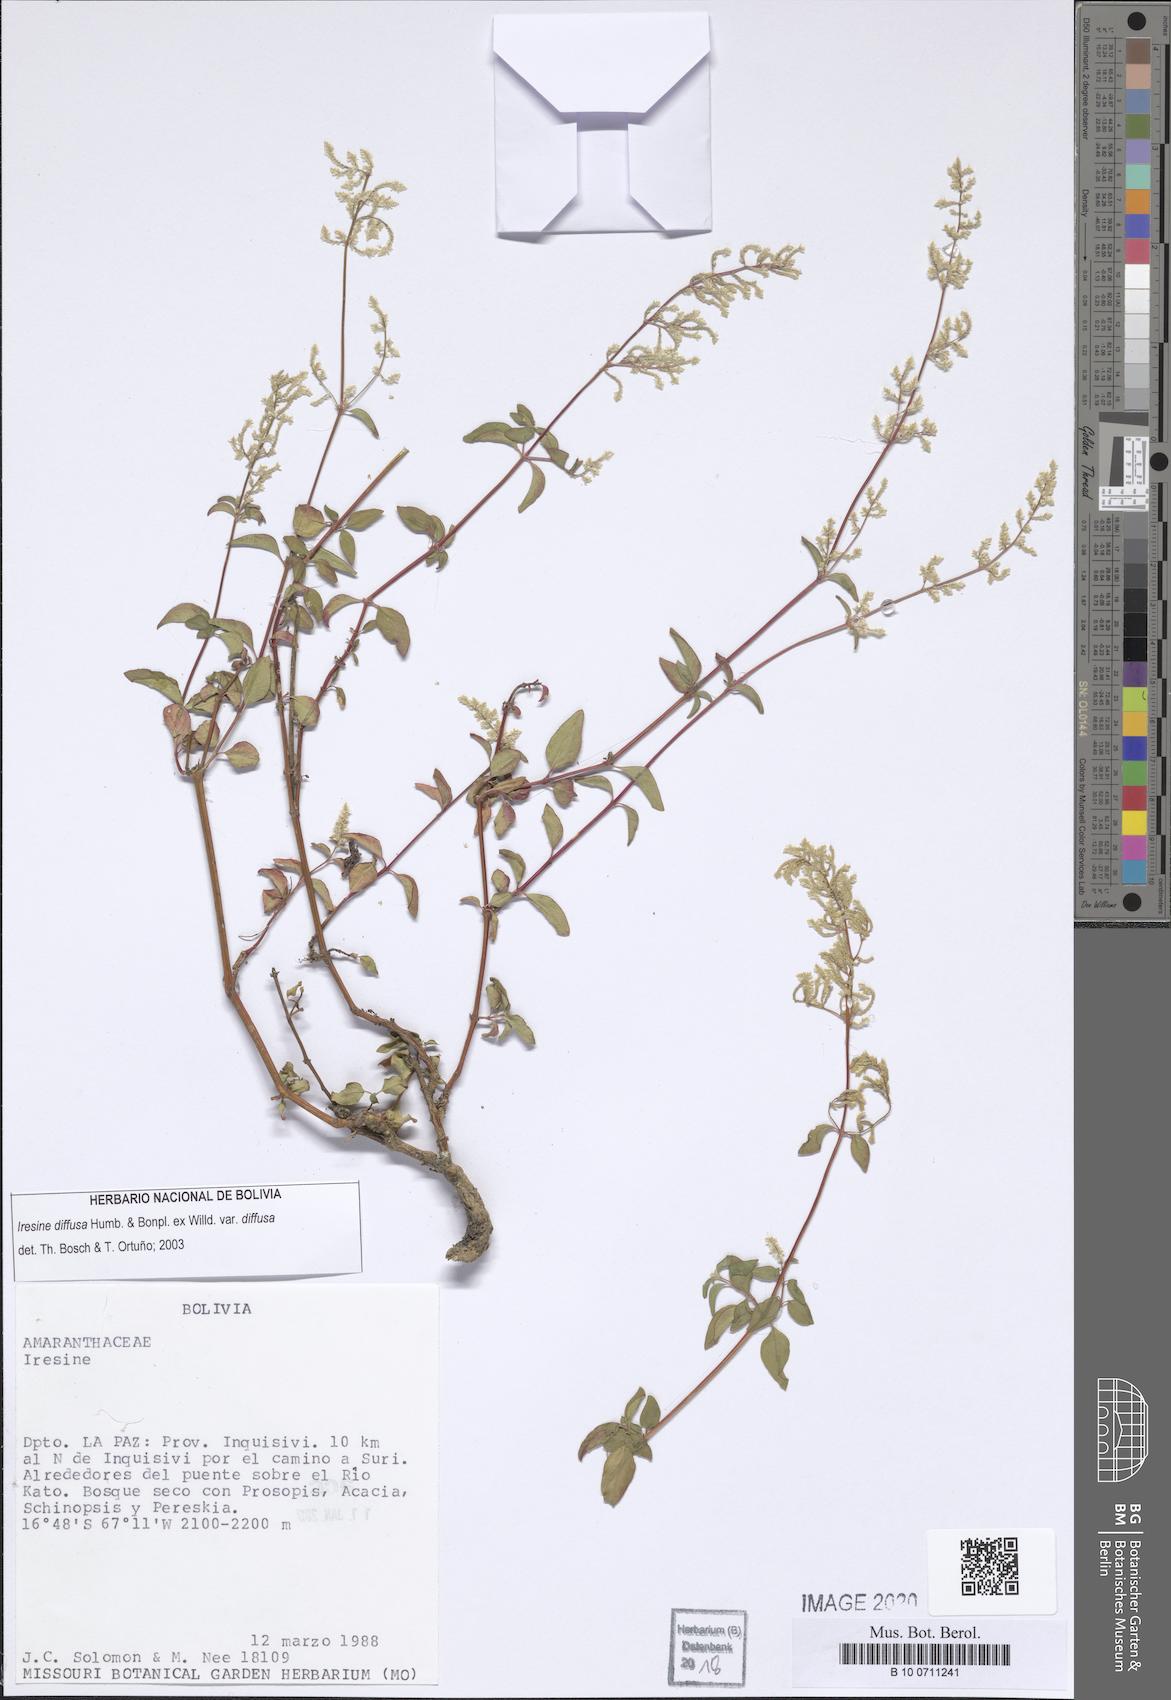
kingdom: Plantae
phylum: Tracheophyta
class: Magnoliopsida
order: Caryophyllales
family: Amaranthaceae
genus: Iresine
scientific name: Iresine diffusa
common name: Juba's-bush
